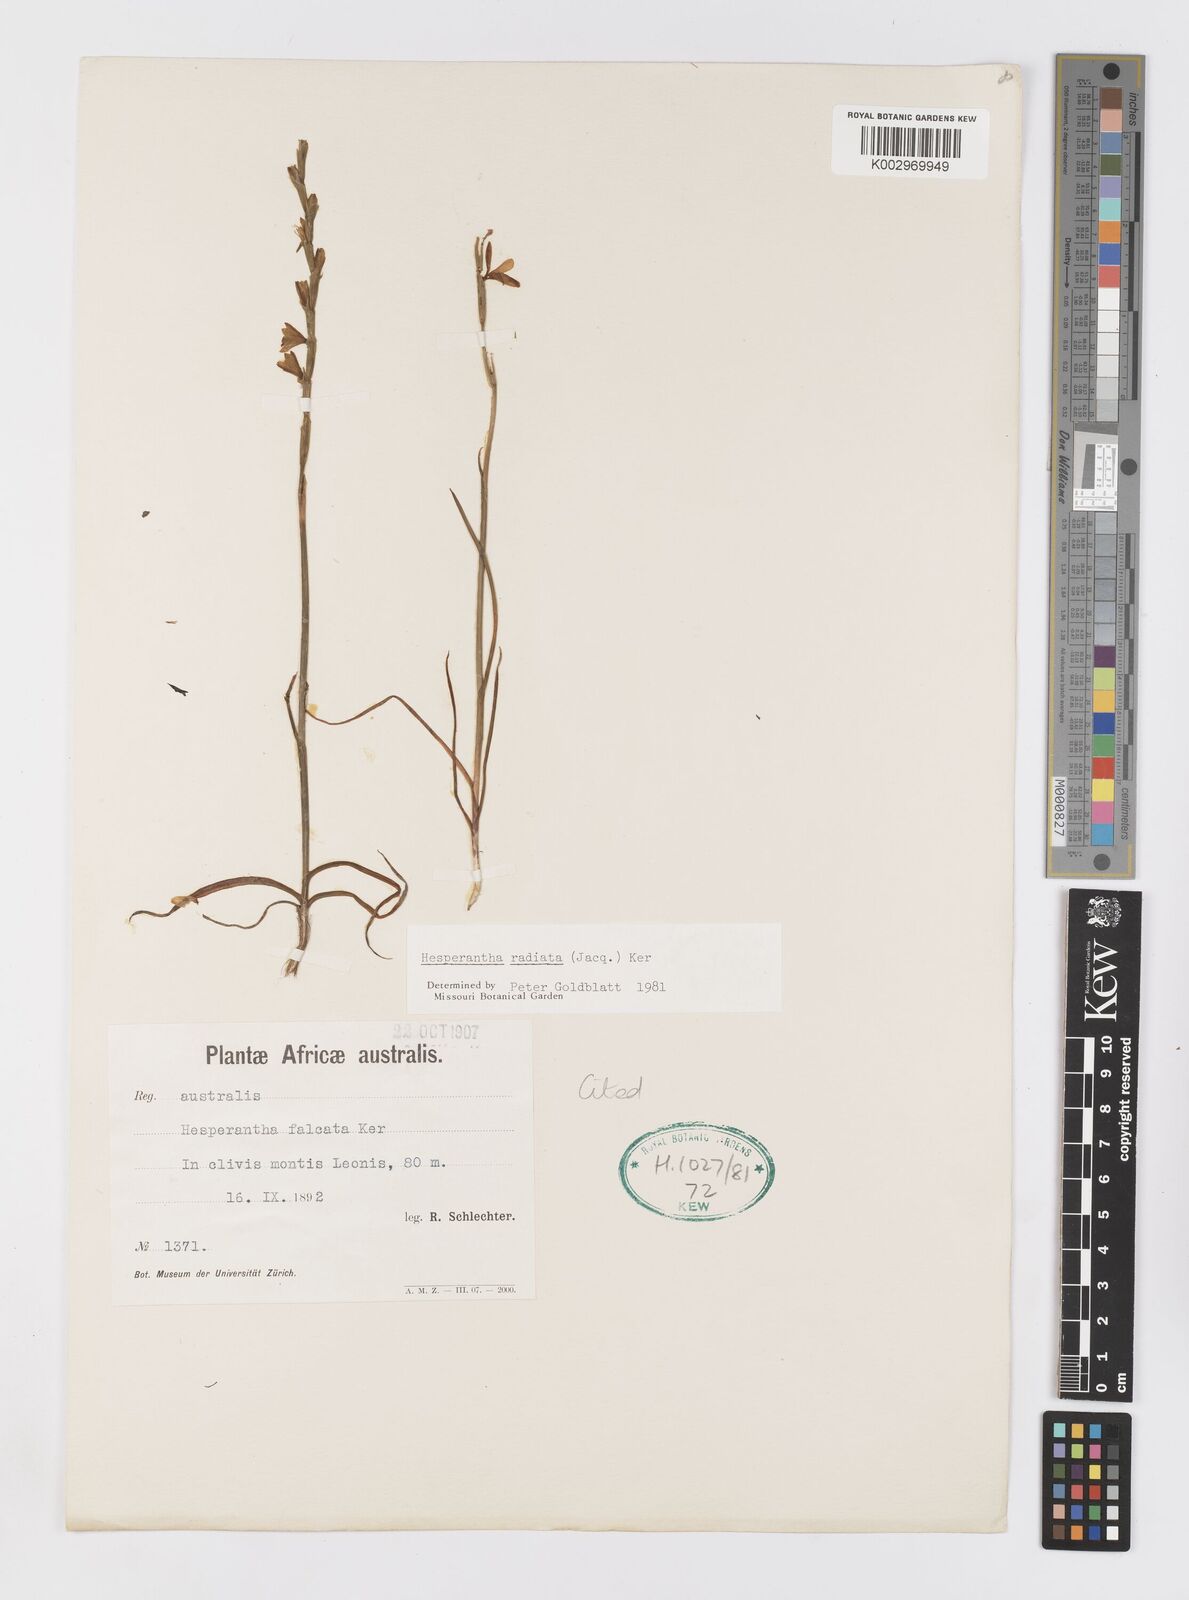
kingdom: Plantae
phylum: Tracheophyta
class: Liliopsida
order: Asparagales
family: Iridaceae
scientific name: Iridaceae
